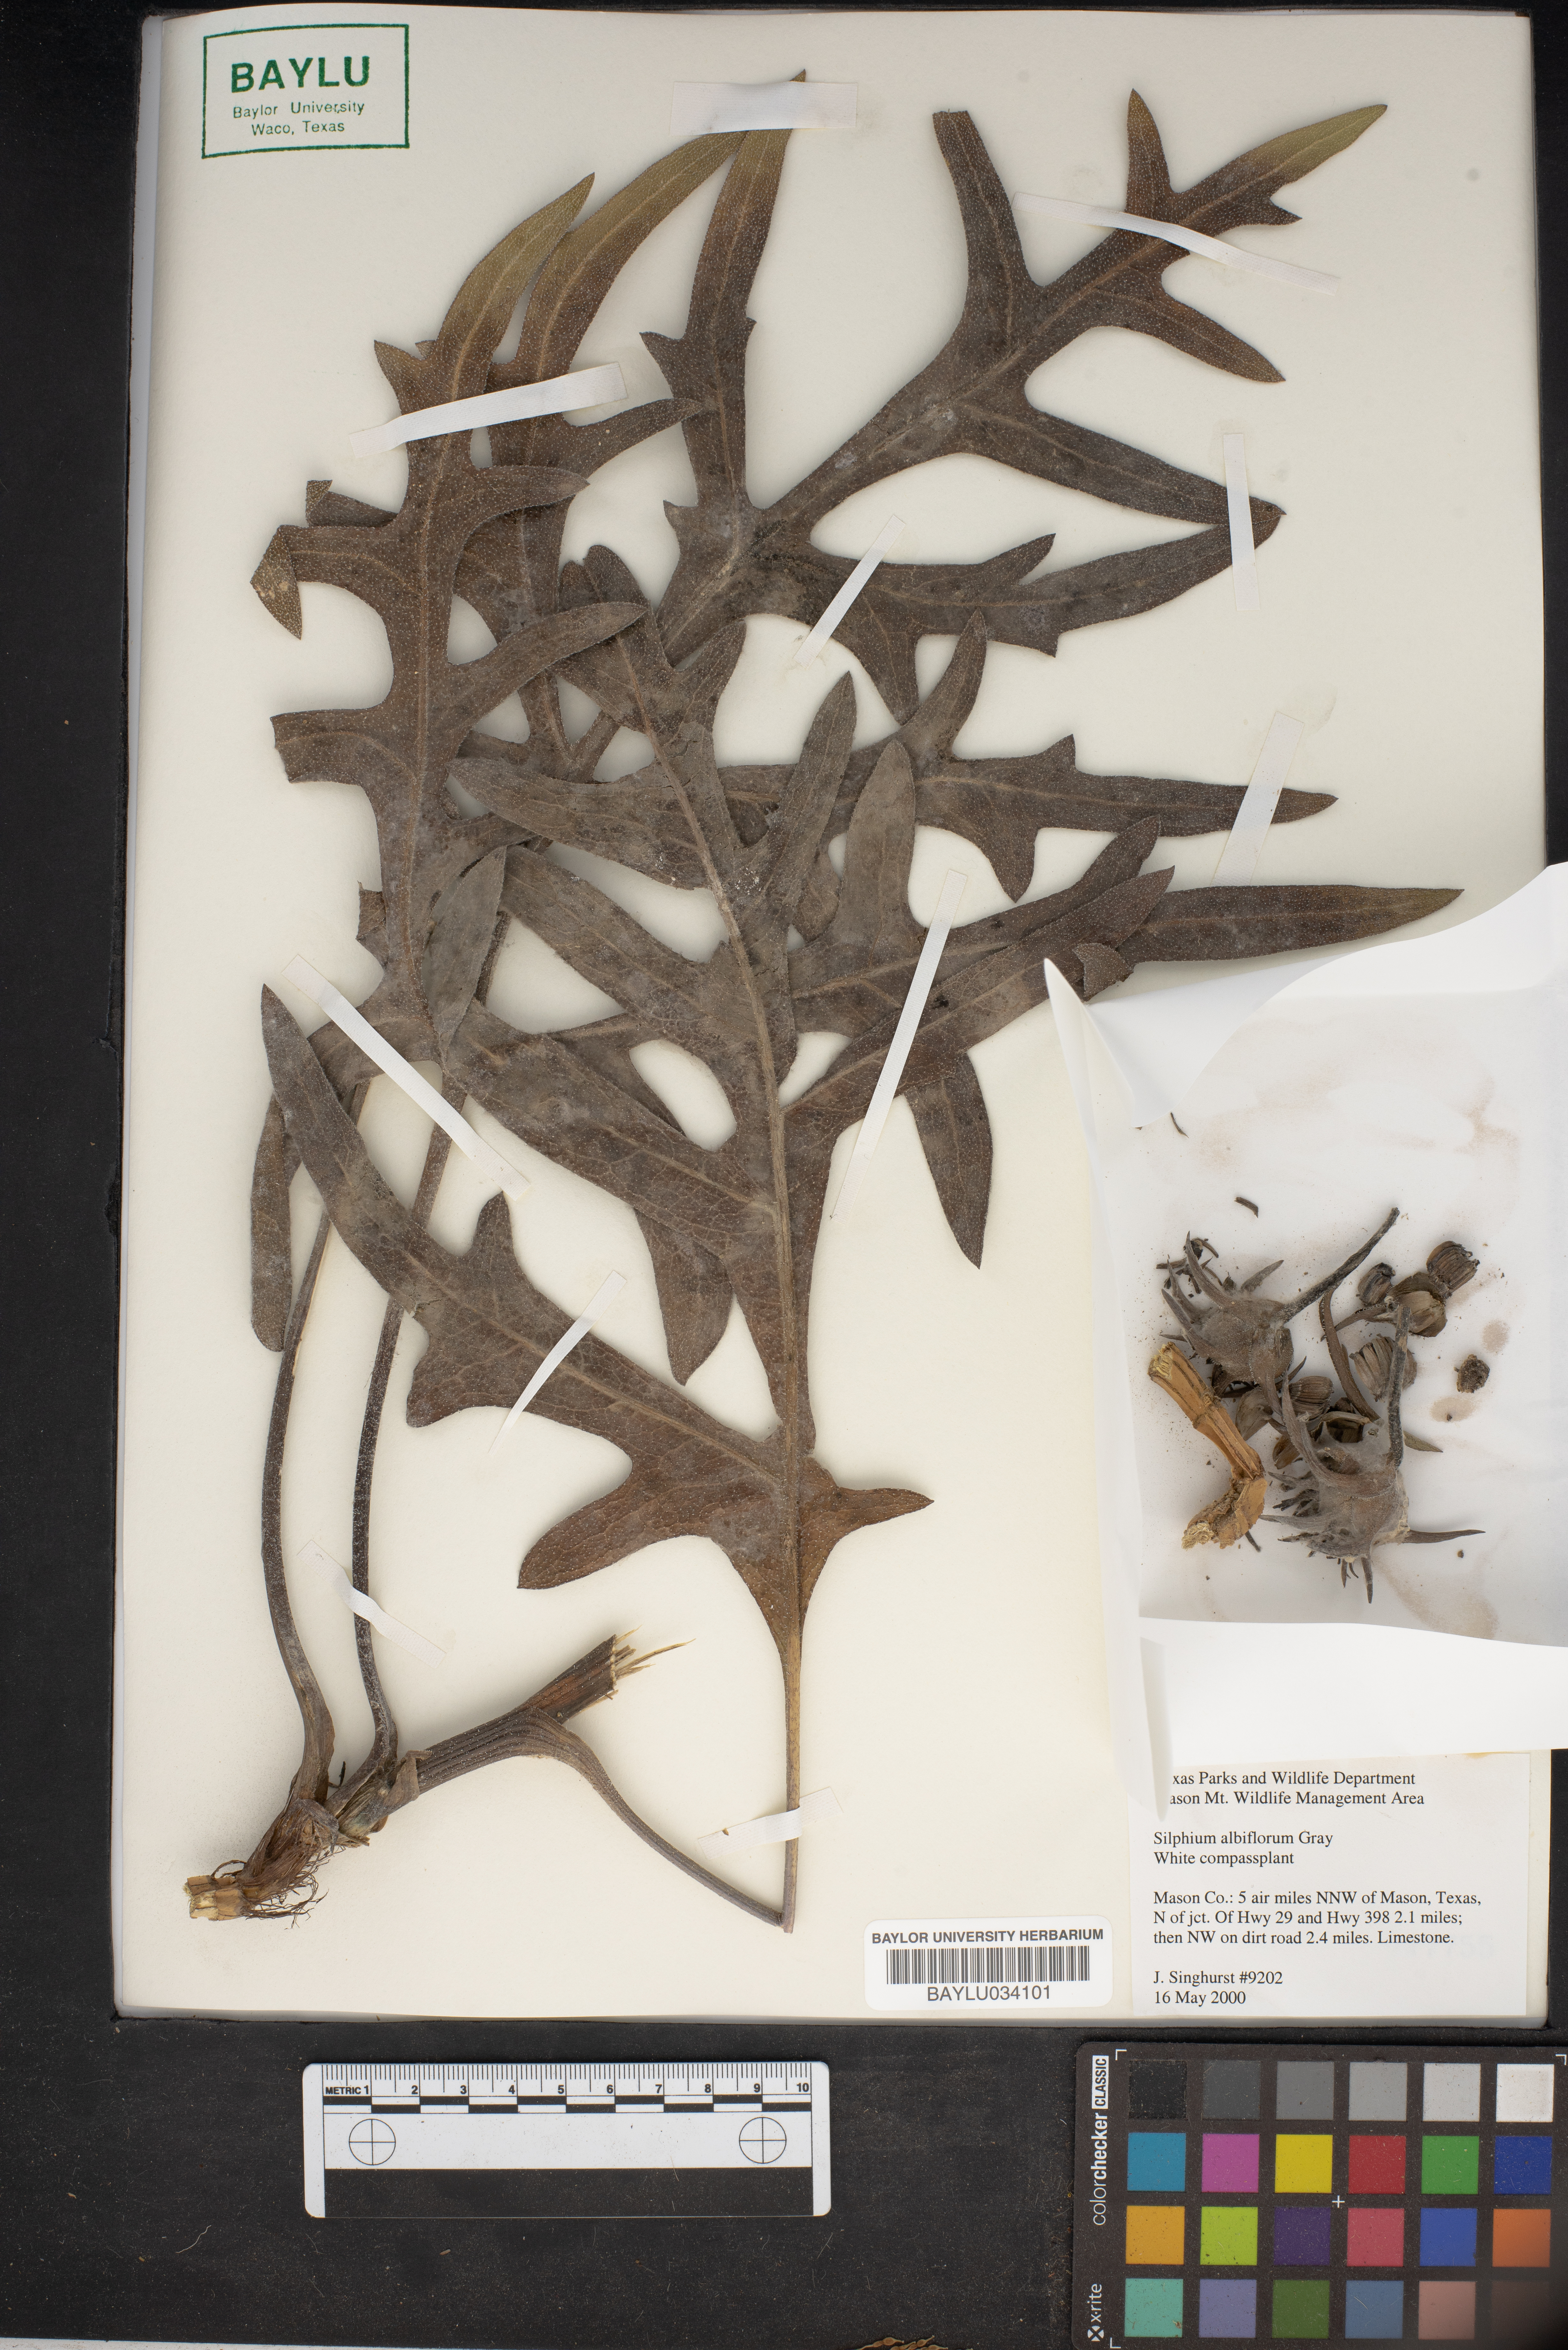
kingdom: Plantae
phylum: Tracheophyta
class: Magnoliopsida
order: Asterales
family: Asteraceae
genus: Silphium
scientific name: Silphium albiflorum
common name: White rosinweed
